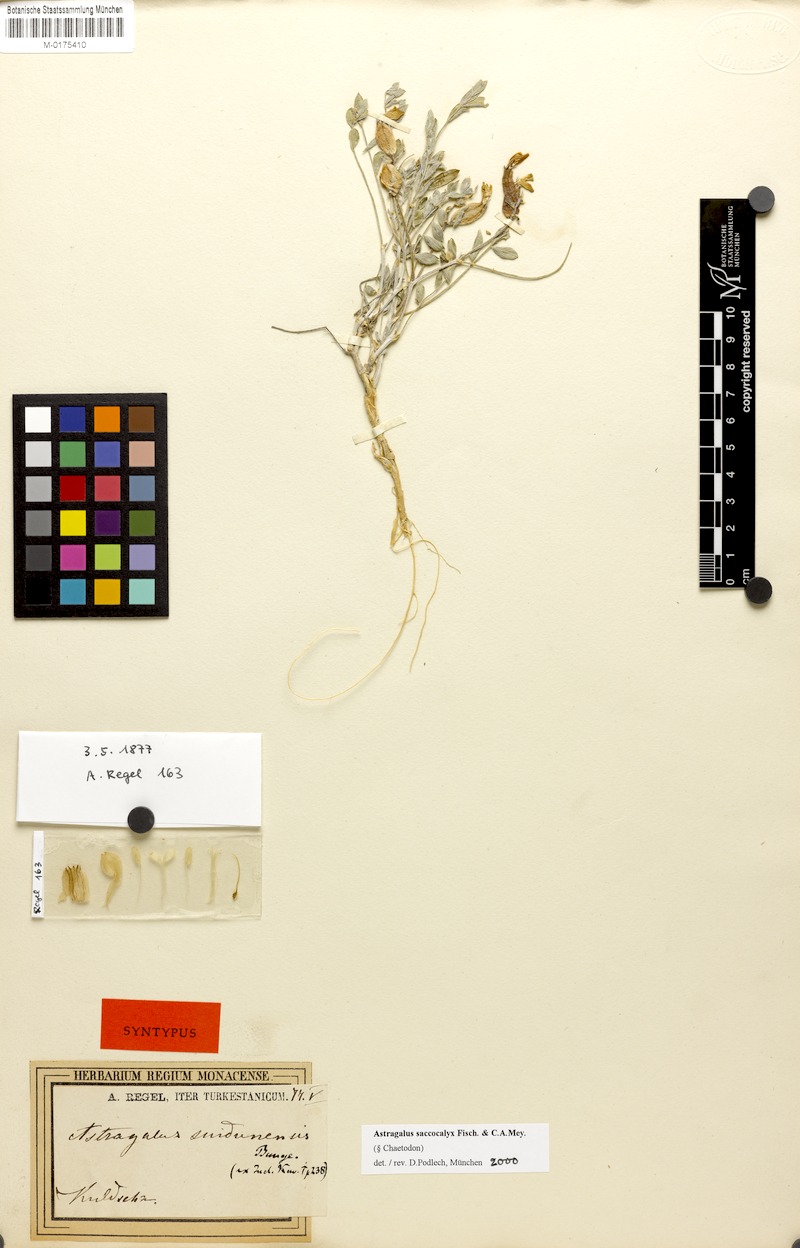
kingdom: Plantae
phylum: Tracheophyta
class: Magnoliopsida
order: Fabales
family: Fabaceae
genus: Astragalus
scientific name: Astragalus saccocalyx
